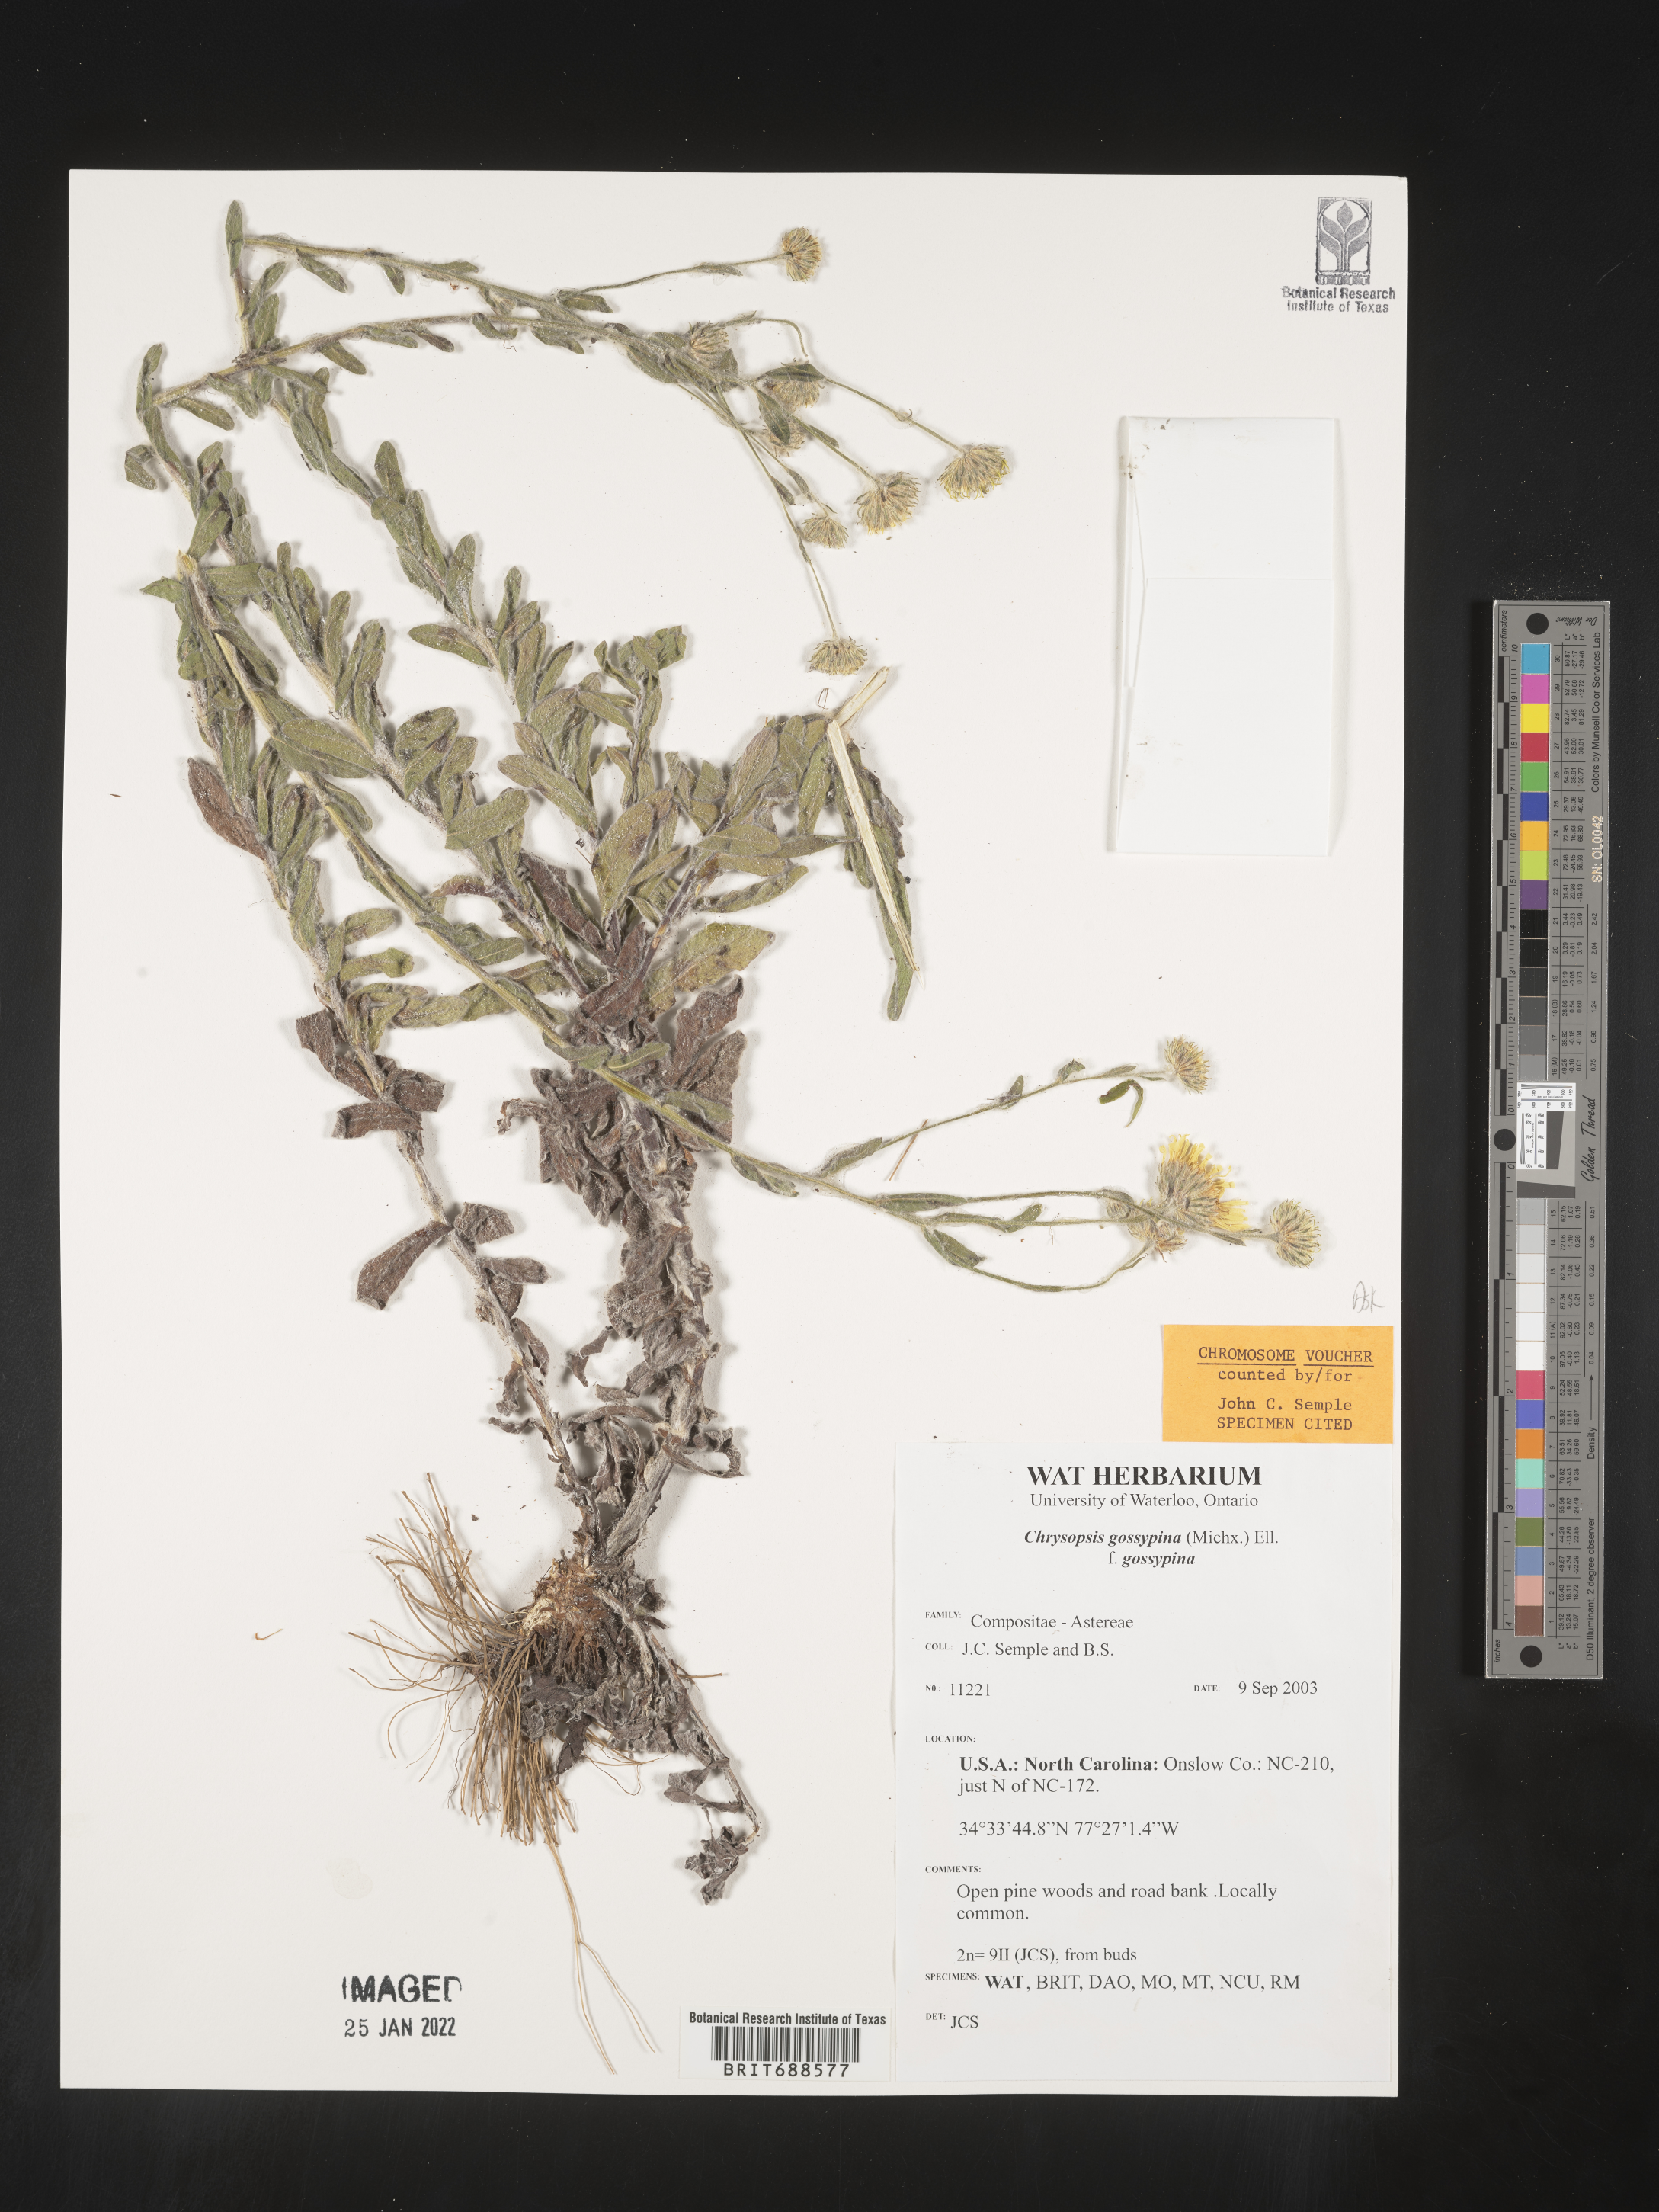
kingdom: Plantae
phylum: Tracheophyta
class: Magnoliopsida
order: Asterales
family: Asteraceae
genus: Chrysopsis
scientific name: Chrysopsis gossypina
